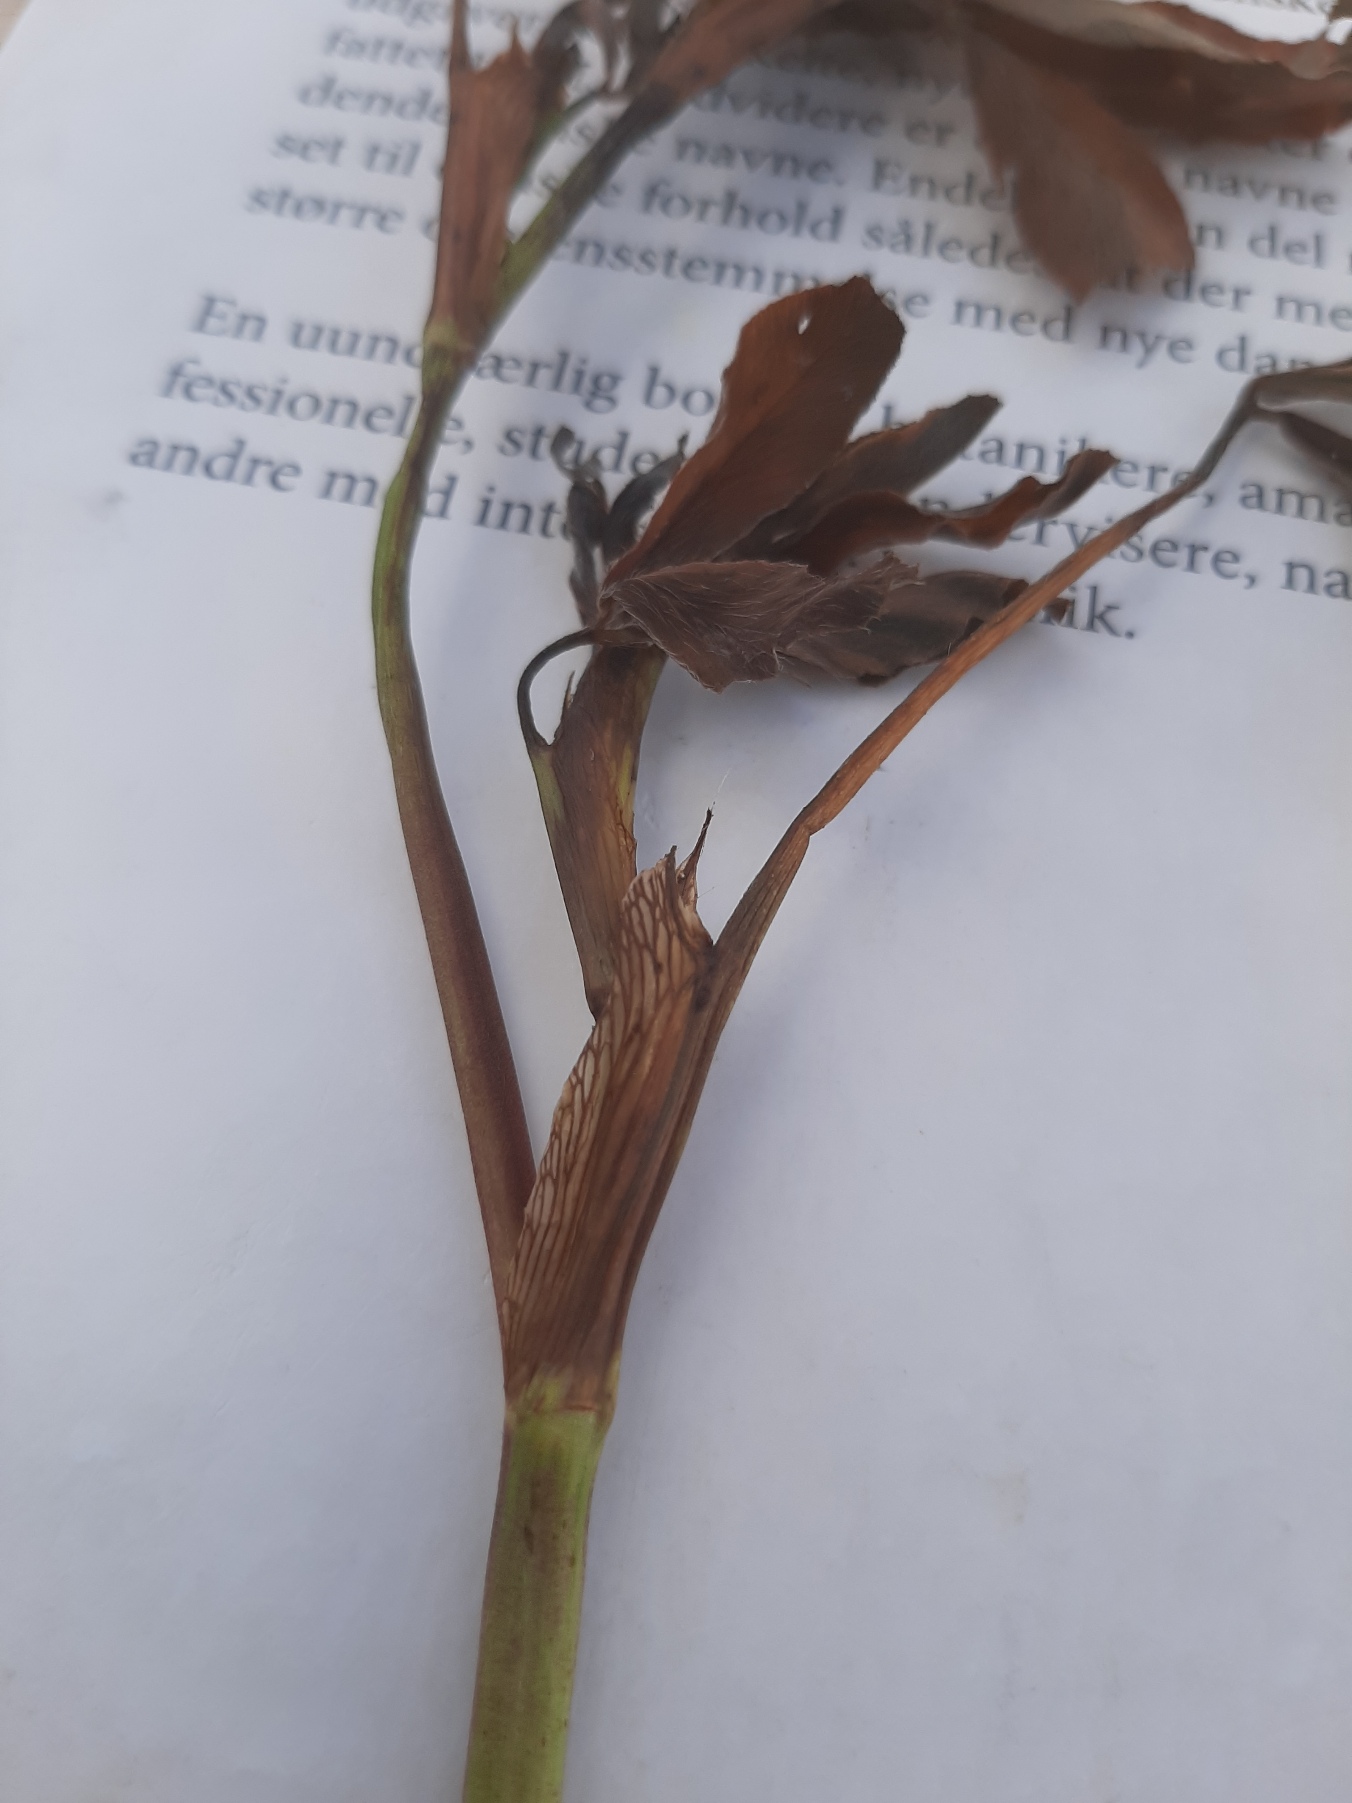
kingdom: Plantae
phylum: Tracheophyta
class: Magnoliopsida
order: Fabales
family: Fabaceae
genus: Trifolium
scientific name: Trifolium pratense
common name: Rød-kløver
